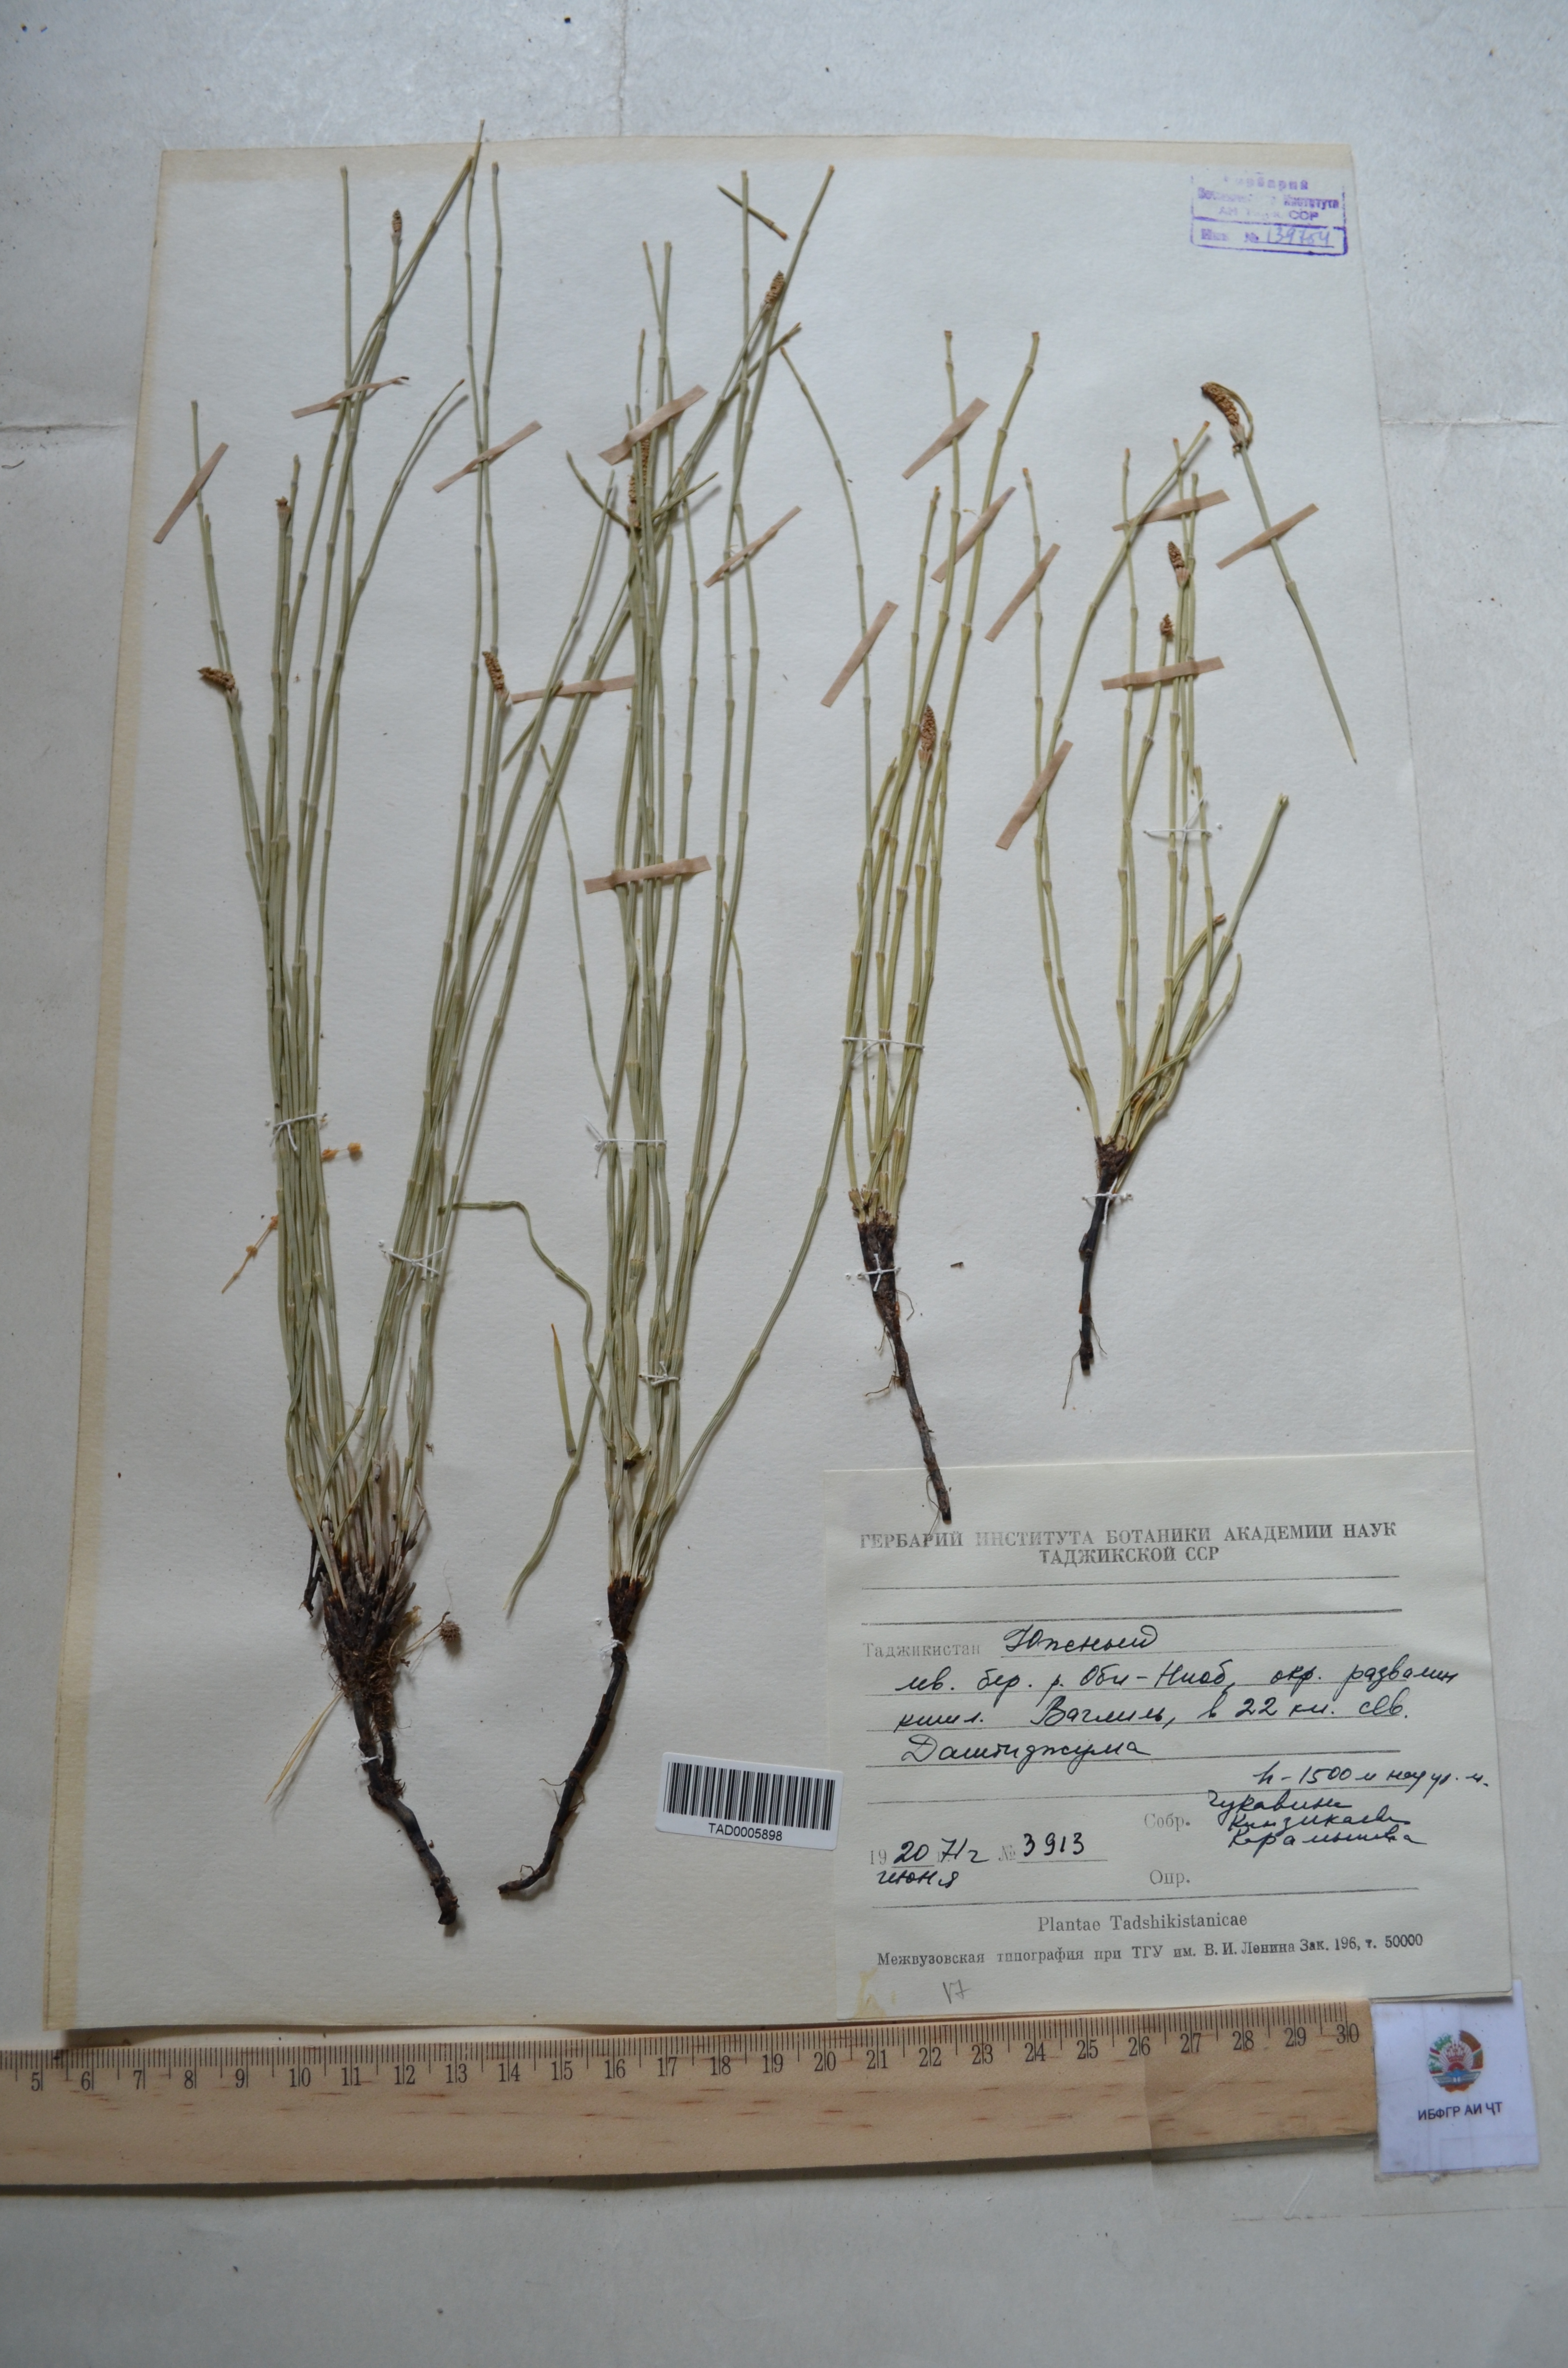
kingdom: Plantae
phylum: Tracheophyta
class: Polypodiopsida
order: Equisetales
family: Equisetaceae
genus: Equisetum
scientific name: Equisetum ramosissimum
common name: Branched horsetail
